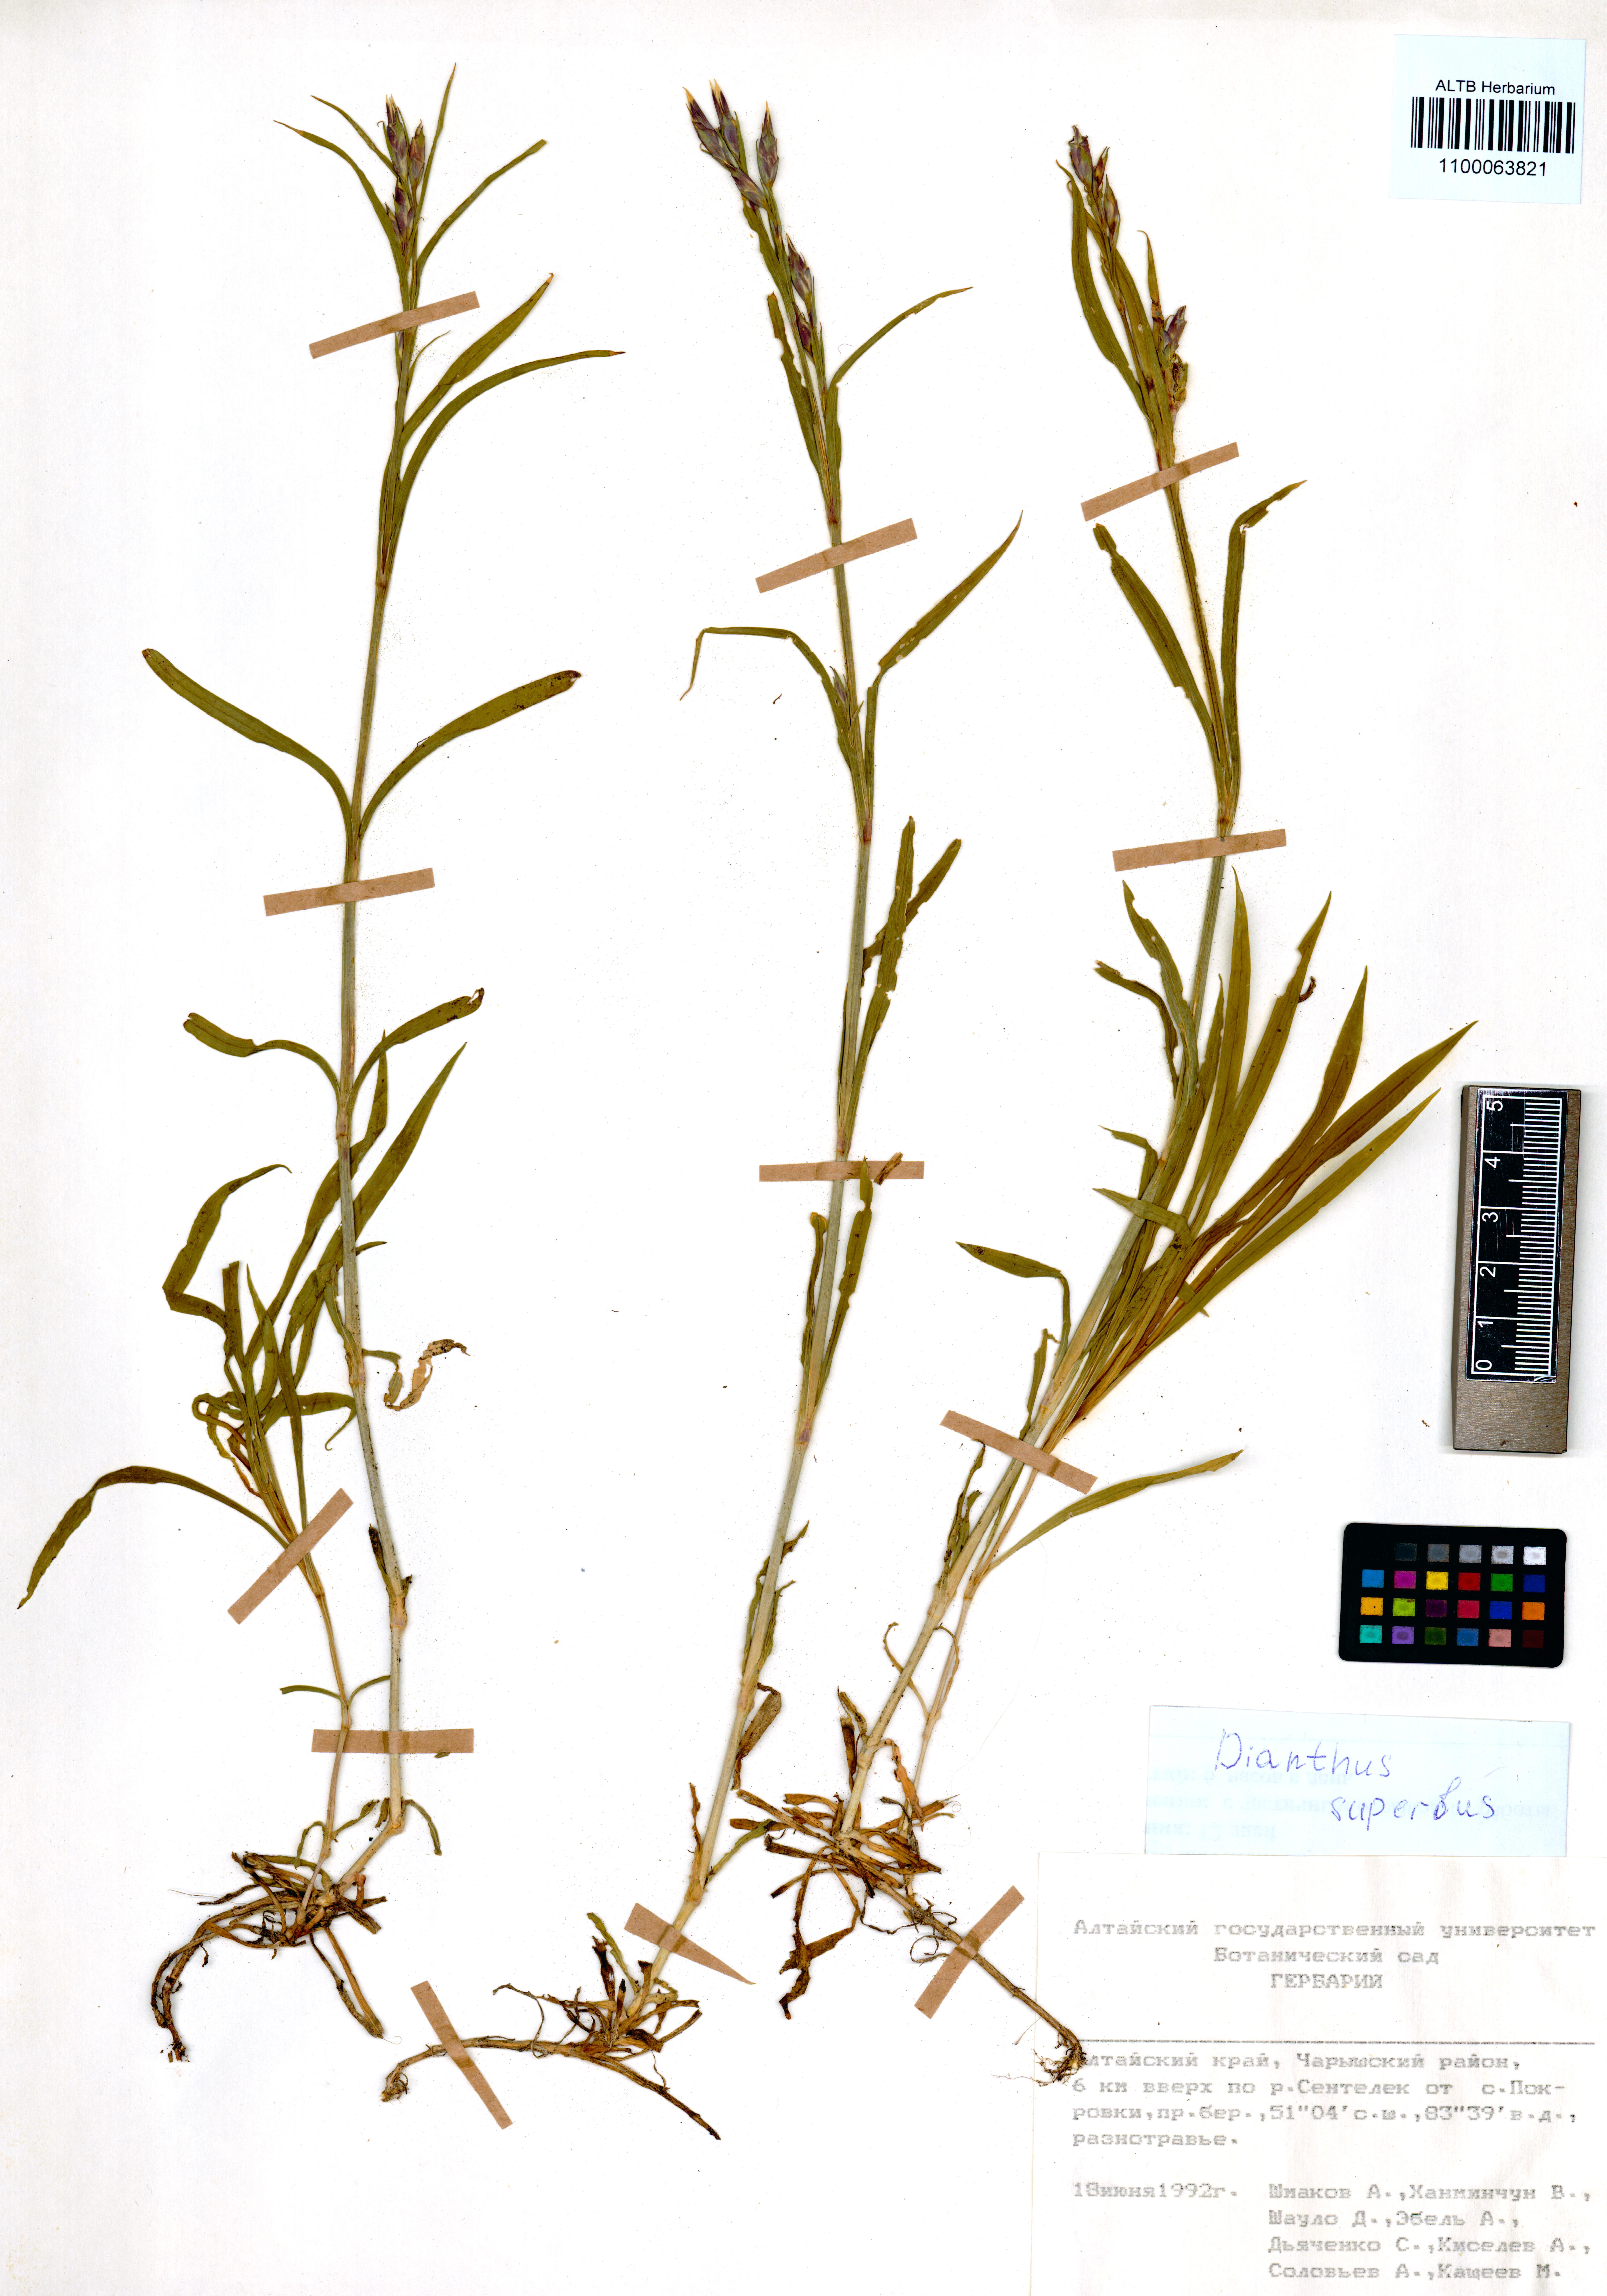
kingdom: Plantae
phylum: Tracheophyta
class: Magnoliopsida
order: Caryophyllales
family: Caryophyllaceae
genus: Dianthus
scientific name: Dianthus superbus
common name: Fringed pink
